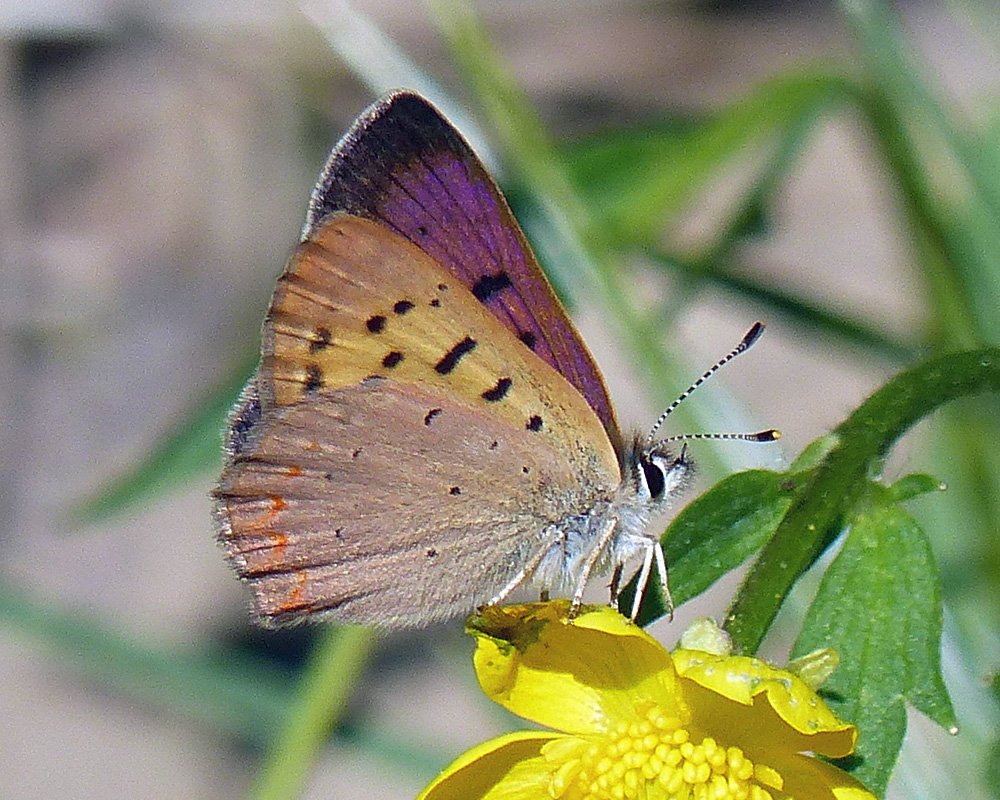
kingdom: Animalia
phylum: Arthropoda
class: Insecta
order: Lepidoptera
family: Sesiidae
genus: Sesia
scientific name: Sesia Lycaena helloides
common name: Purplish Copper
